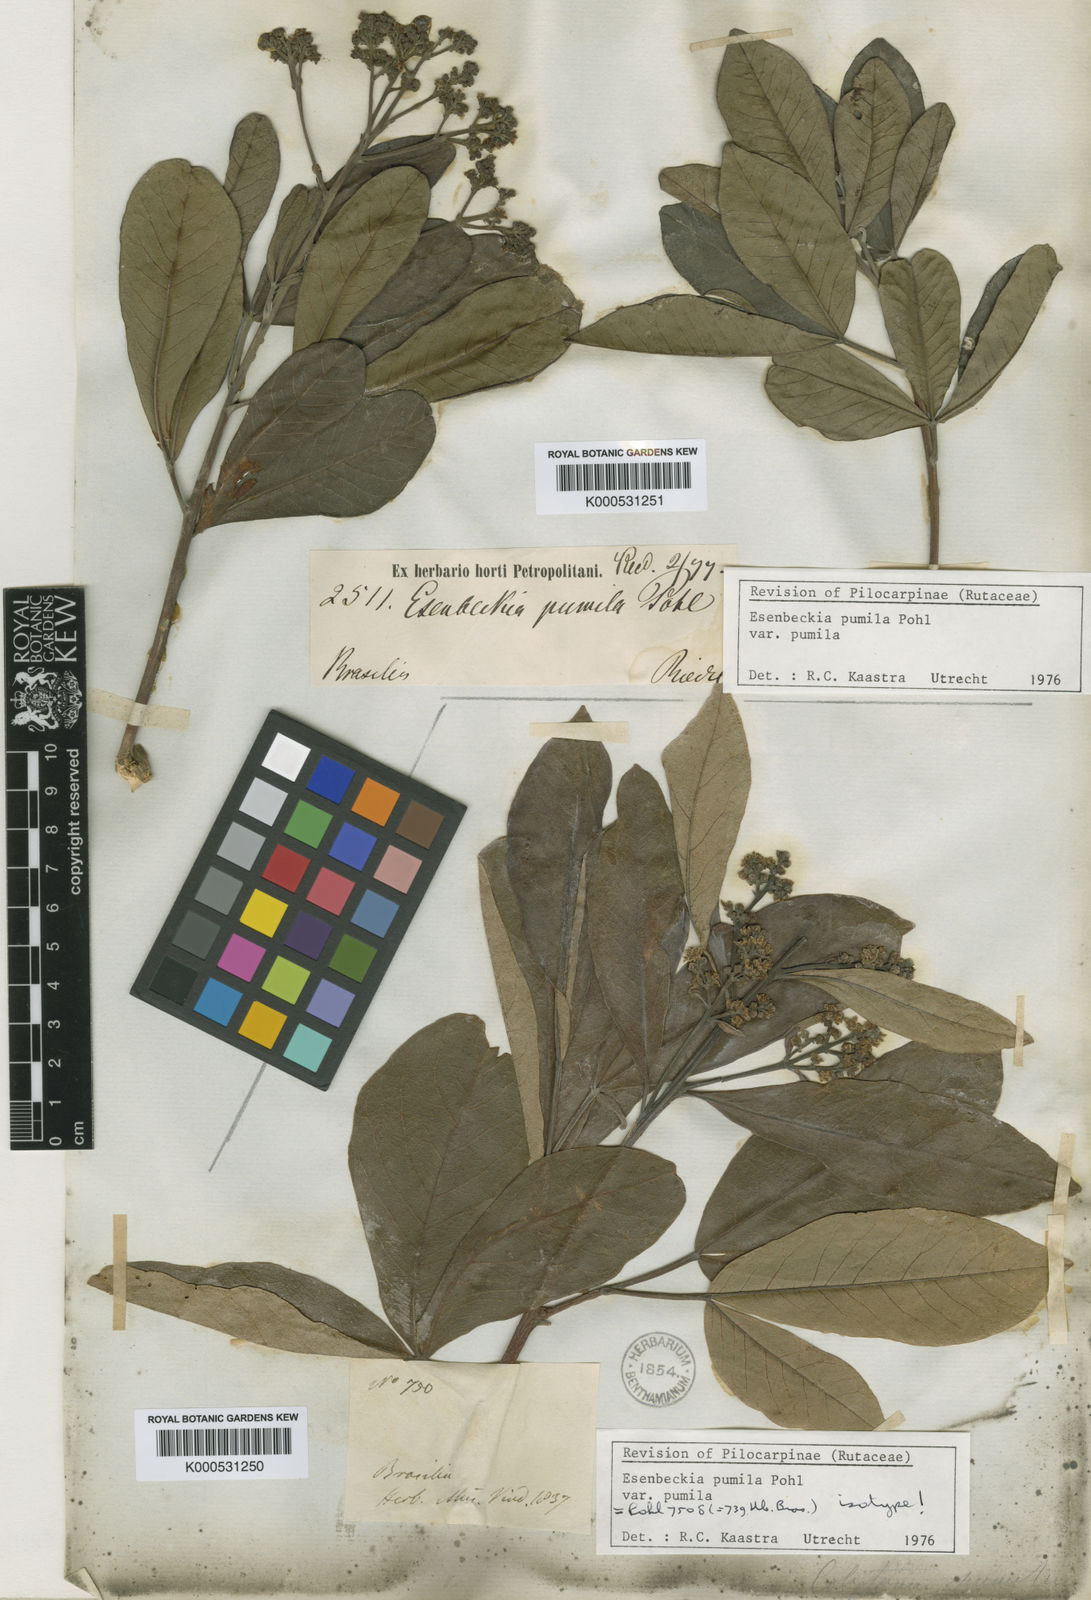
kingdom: Plantae
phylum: Tracheophyta
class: Magnoliopsida
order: Sapindales
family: Rutaceae
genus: Esenbeckia
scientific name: Esenbeckia pumila
